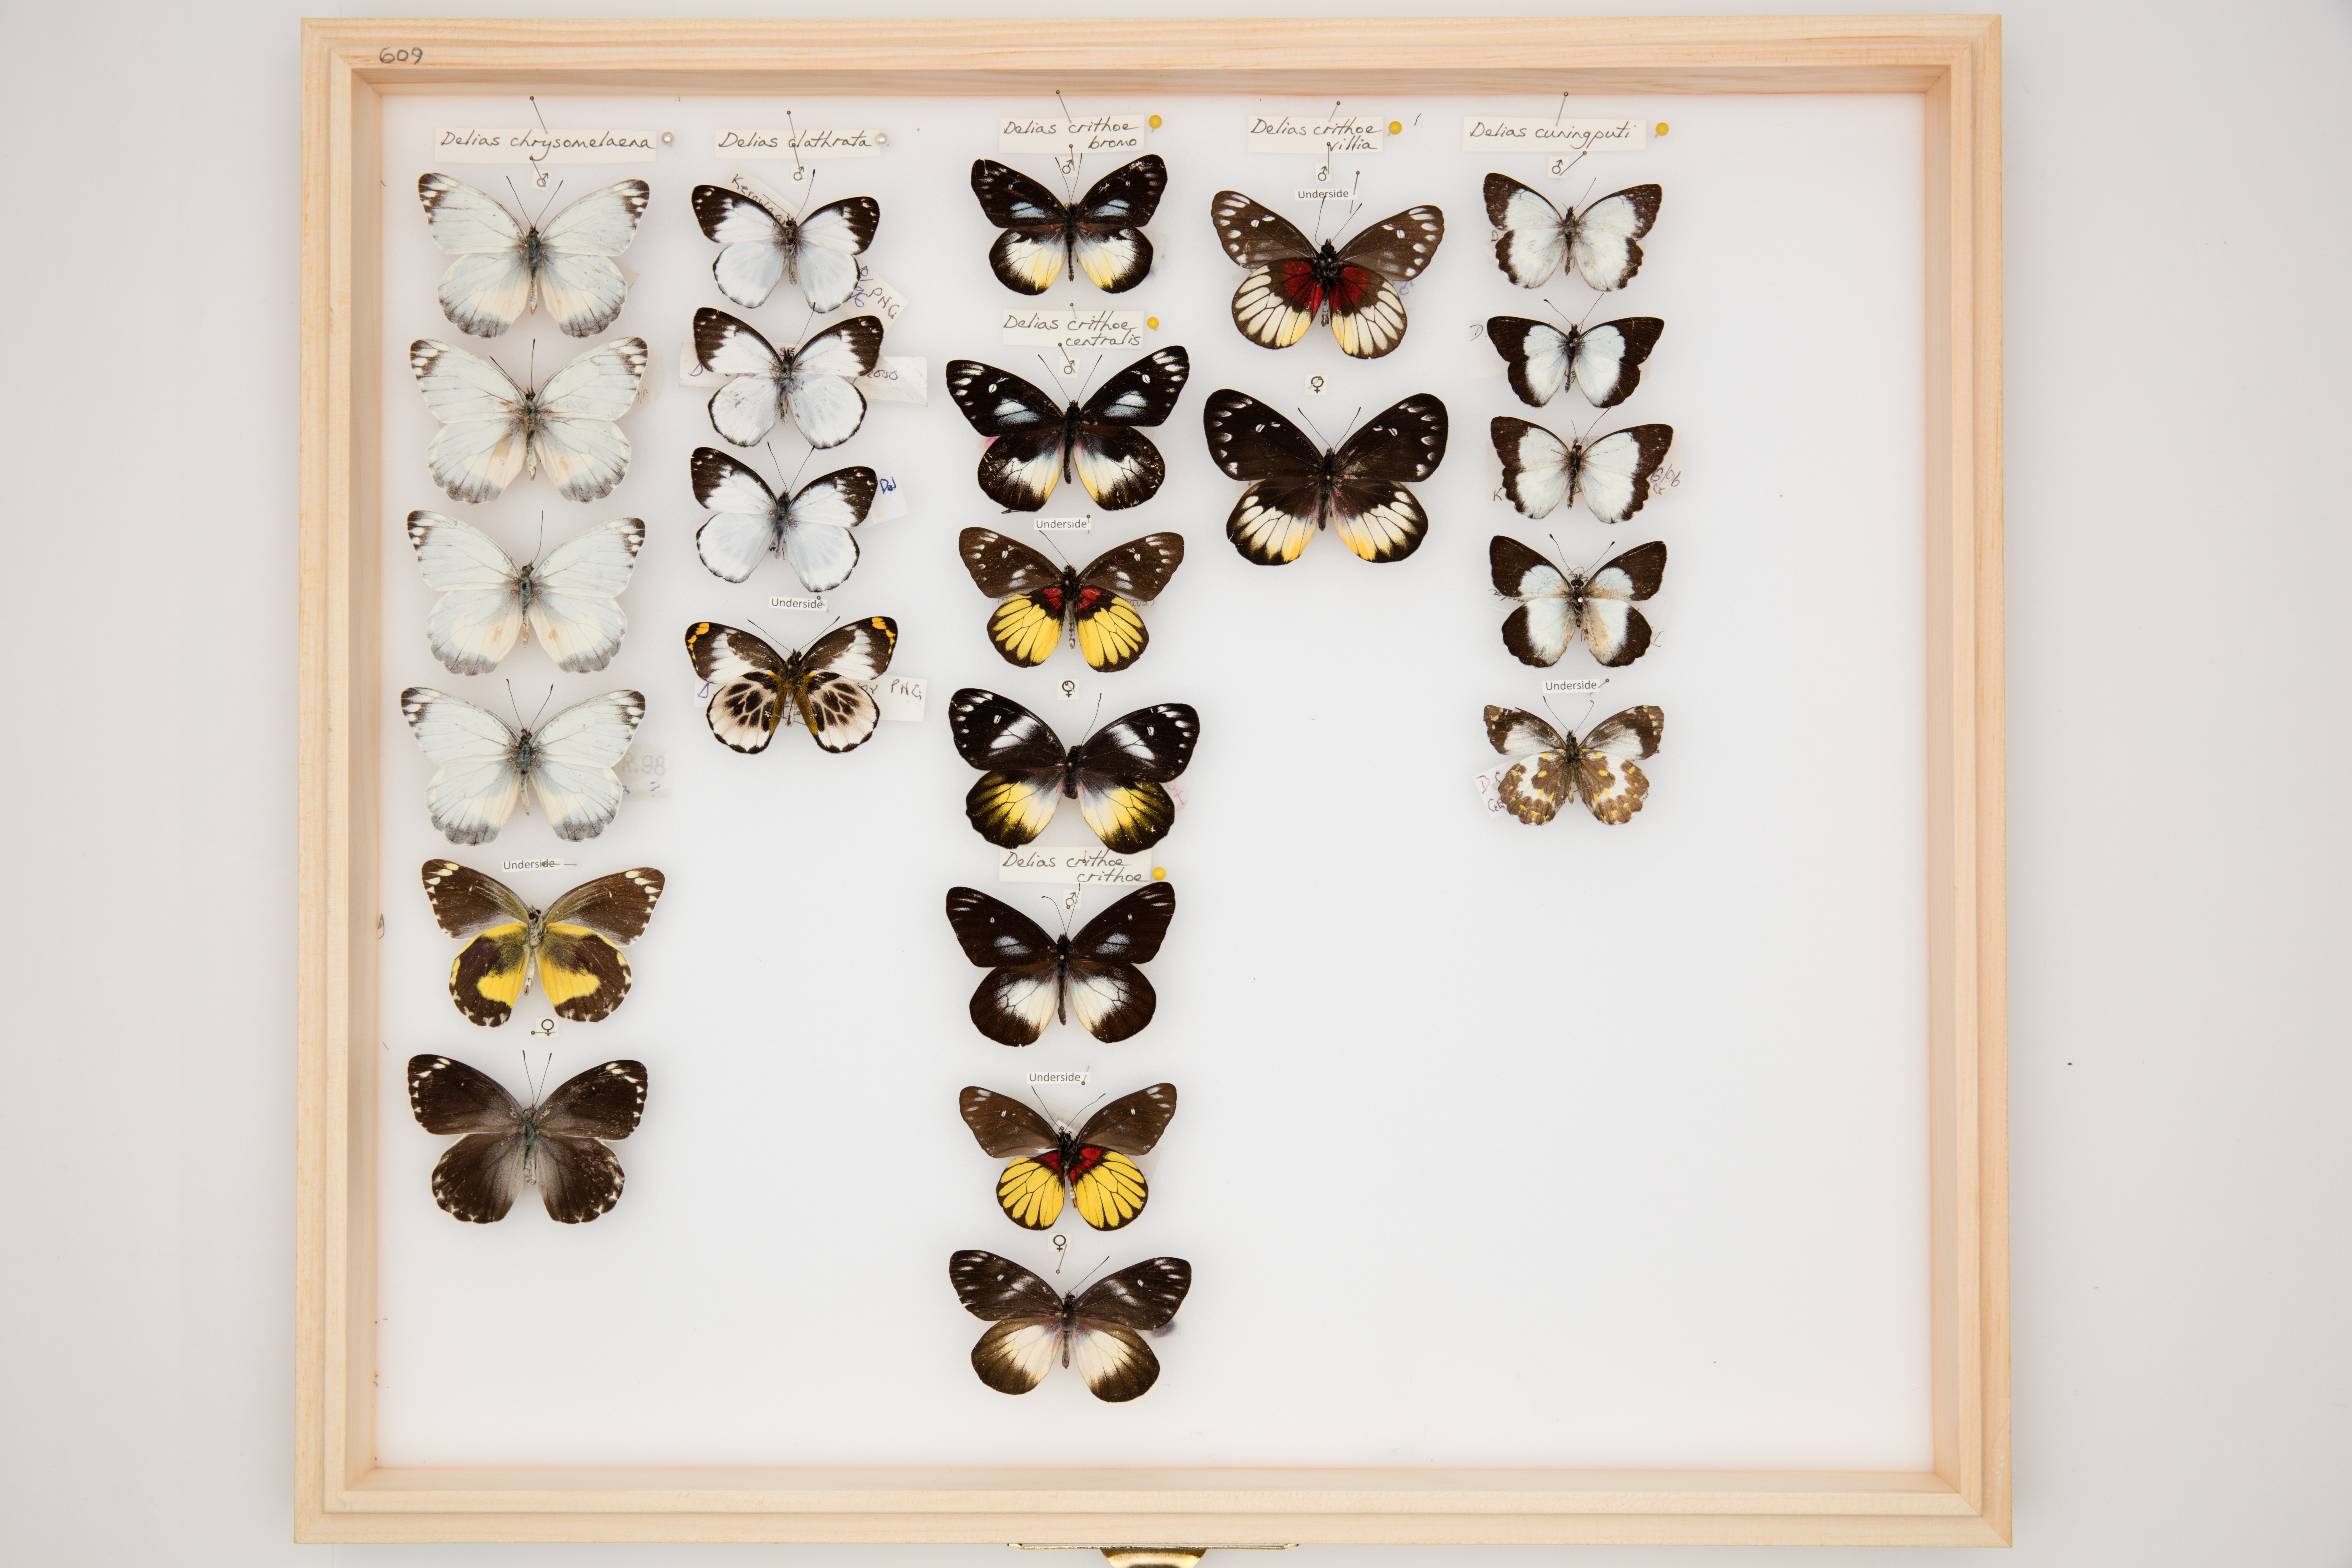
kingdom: Animalia
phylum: Arthropoda
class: Insecta
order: Lepidoptera
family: Pieridae
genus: Delias
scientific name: Delias cuningputi
